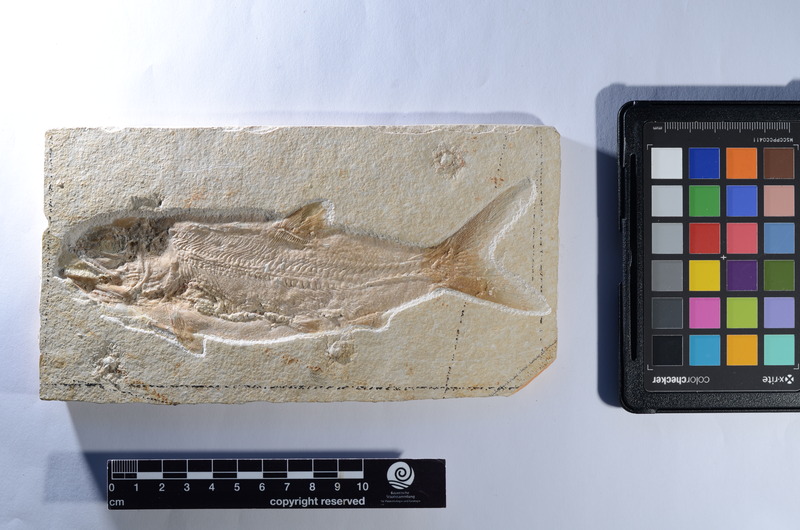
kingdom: Animalia
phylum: Chordata
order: Amiiformes
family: Caturidae
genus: Caturus
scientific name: Caturus furcatus
